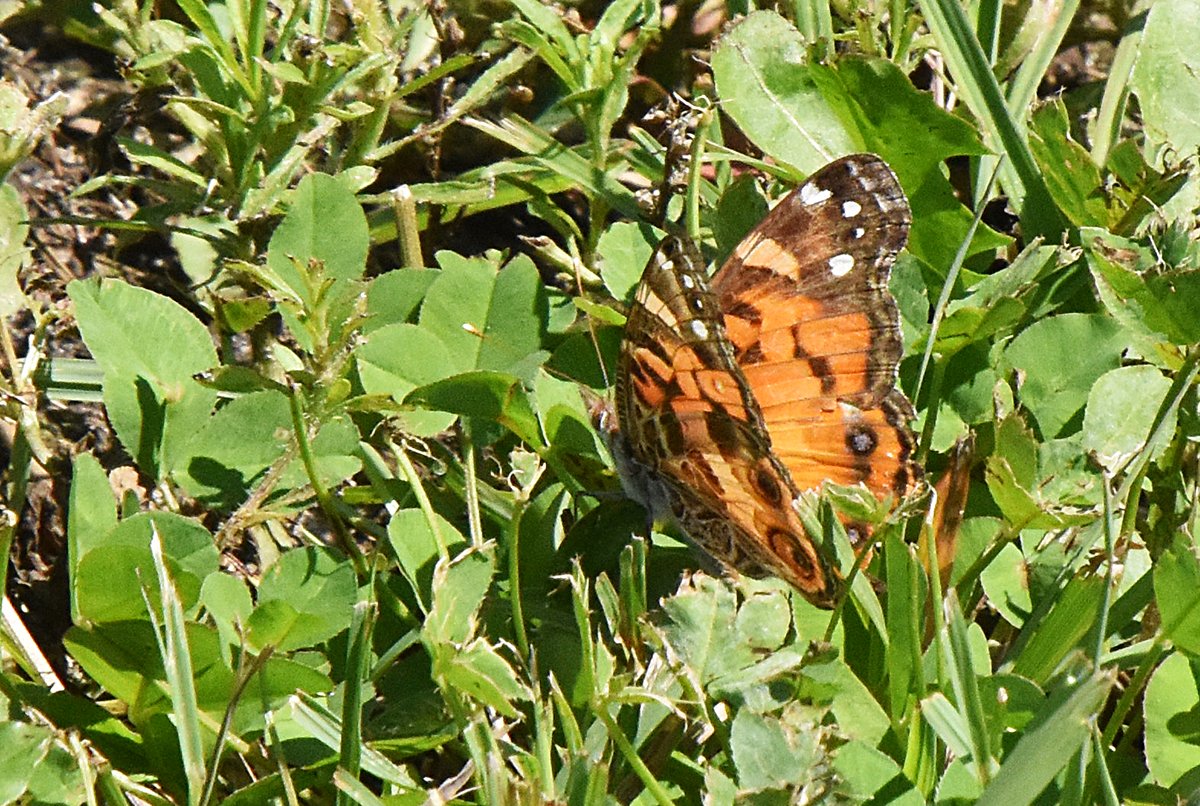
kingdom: Animalia
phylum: Arthropoda
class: Insecta
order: Lepidoptera
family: Nymphalidae
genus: Vanessa
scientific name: Vanessa virginiensis
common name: American Lady
